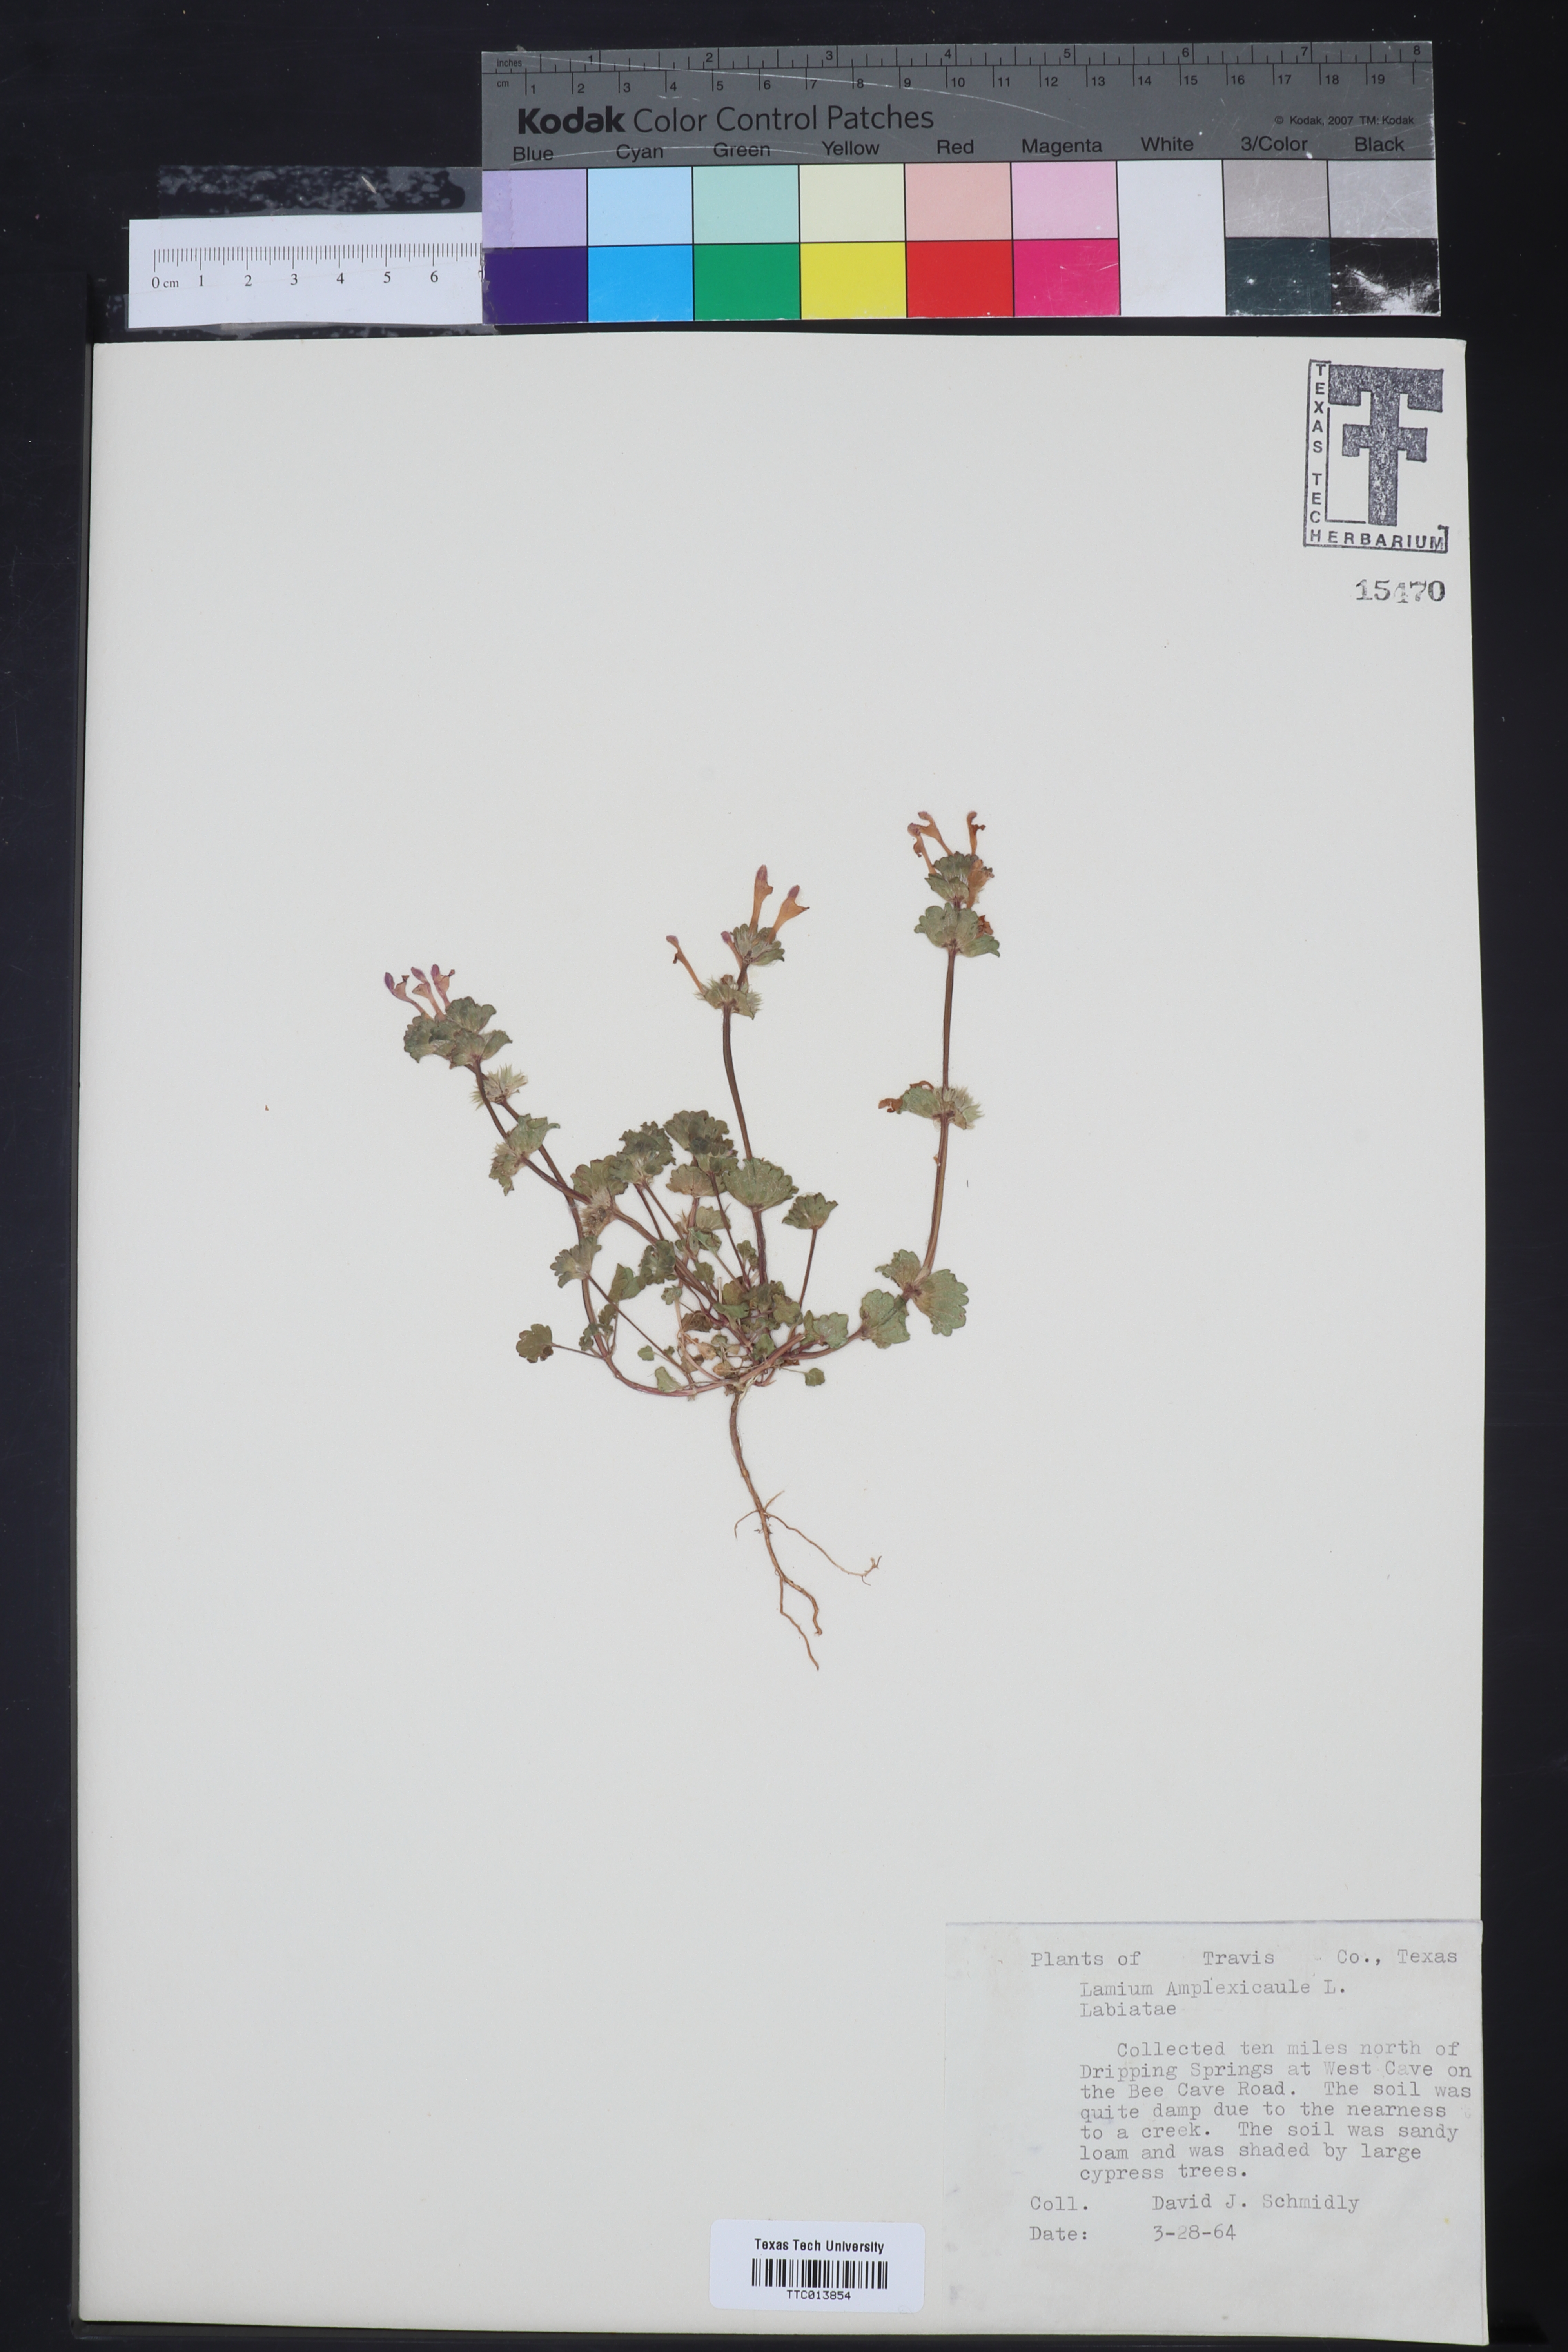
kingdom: Plantae
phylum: Tracheophyta
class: Magnoliopsida
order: Lamiales
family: Lamiaceae
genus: Lamium
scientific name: Lamium amplexicaule
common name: Henbit dead-nettle
